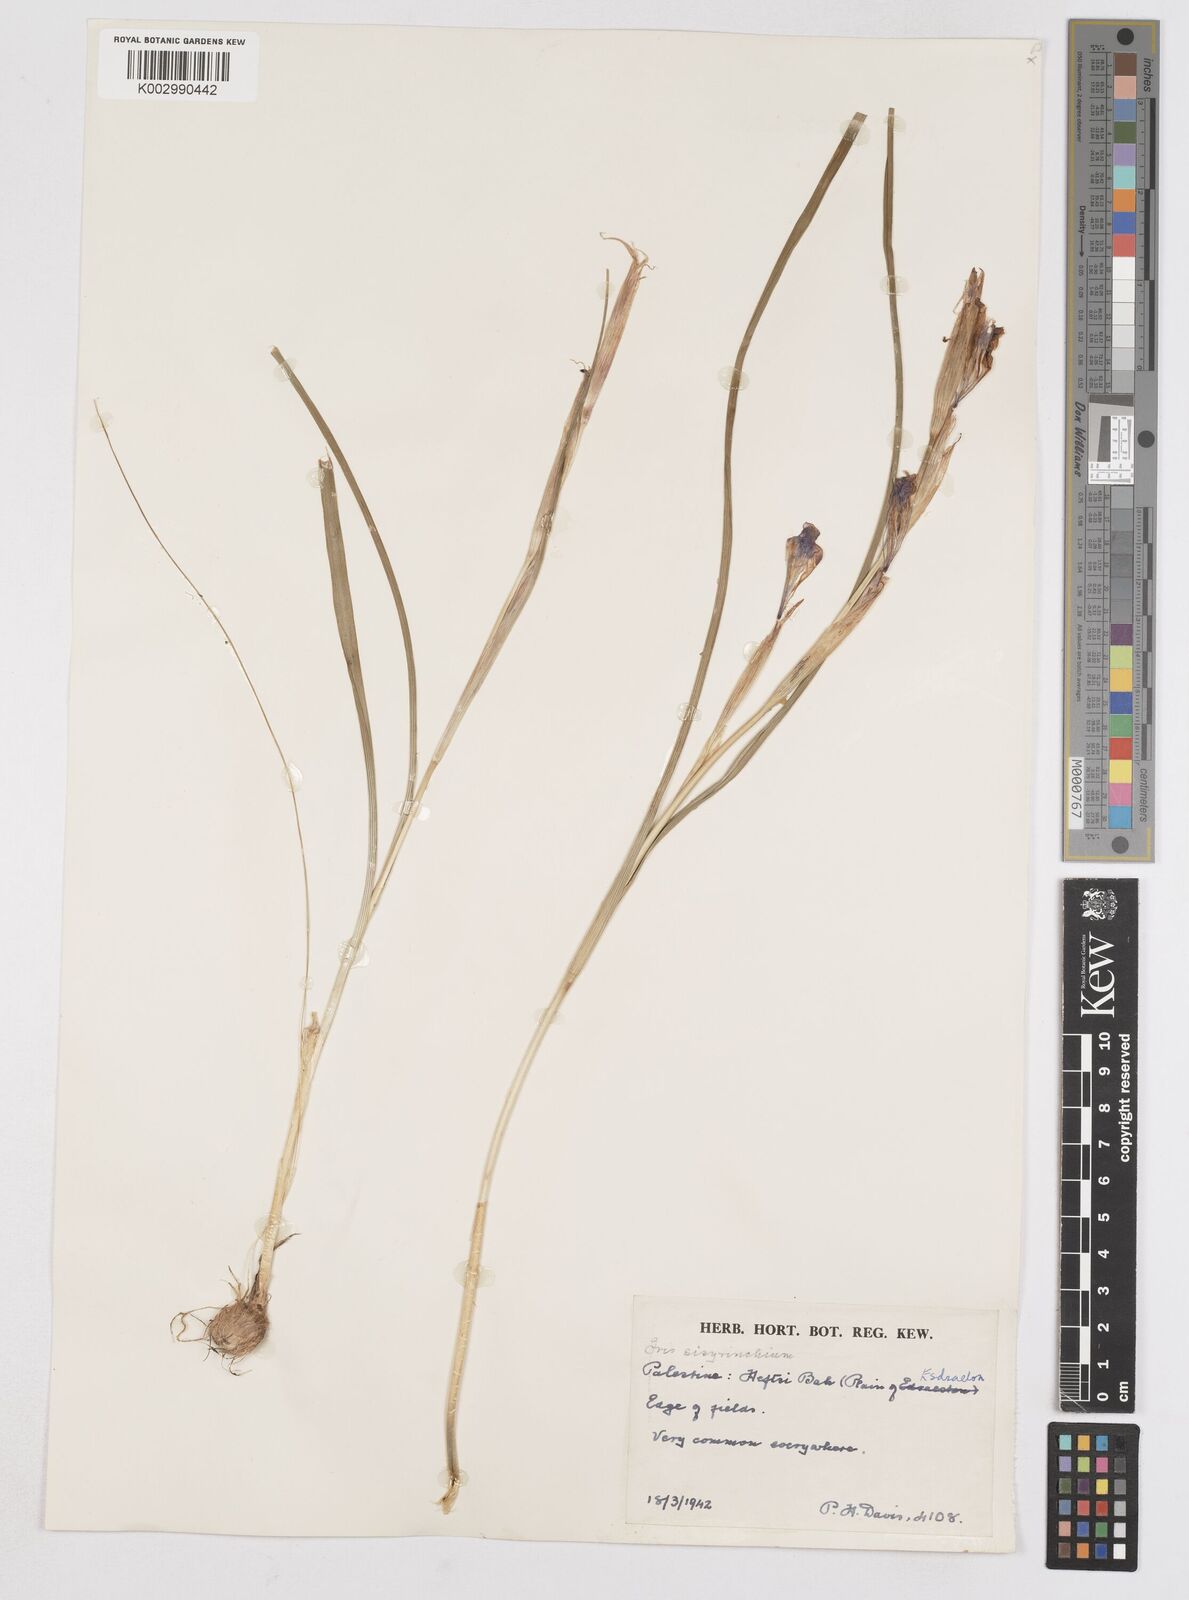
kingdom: Plantae
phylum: Tracheophyta
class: Liliopsida
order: Asparagales
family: Iridaceae
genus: Moraea
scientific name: Moraea sisyrinchium
